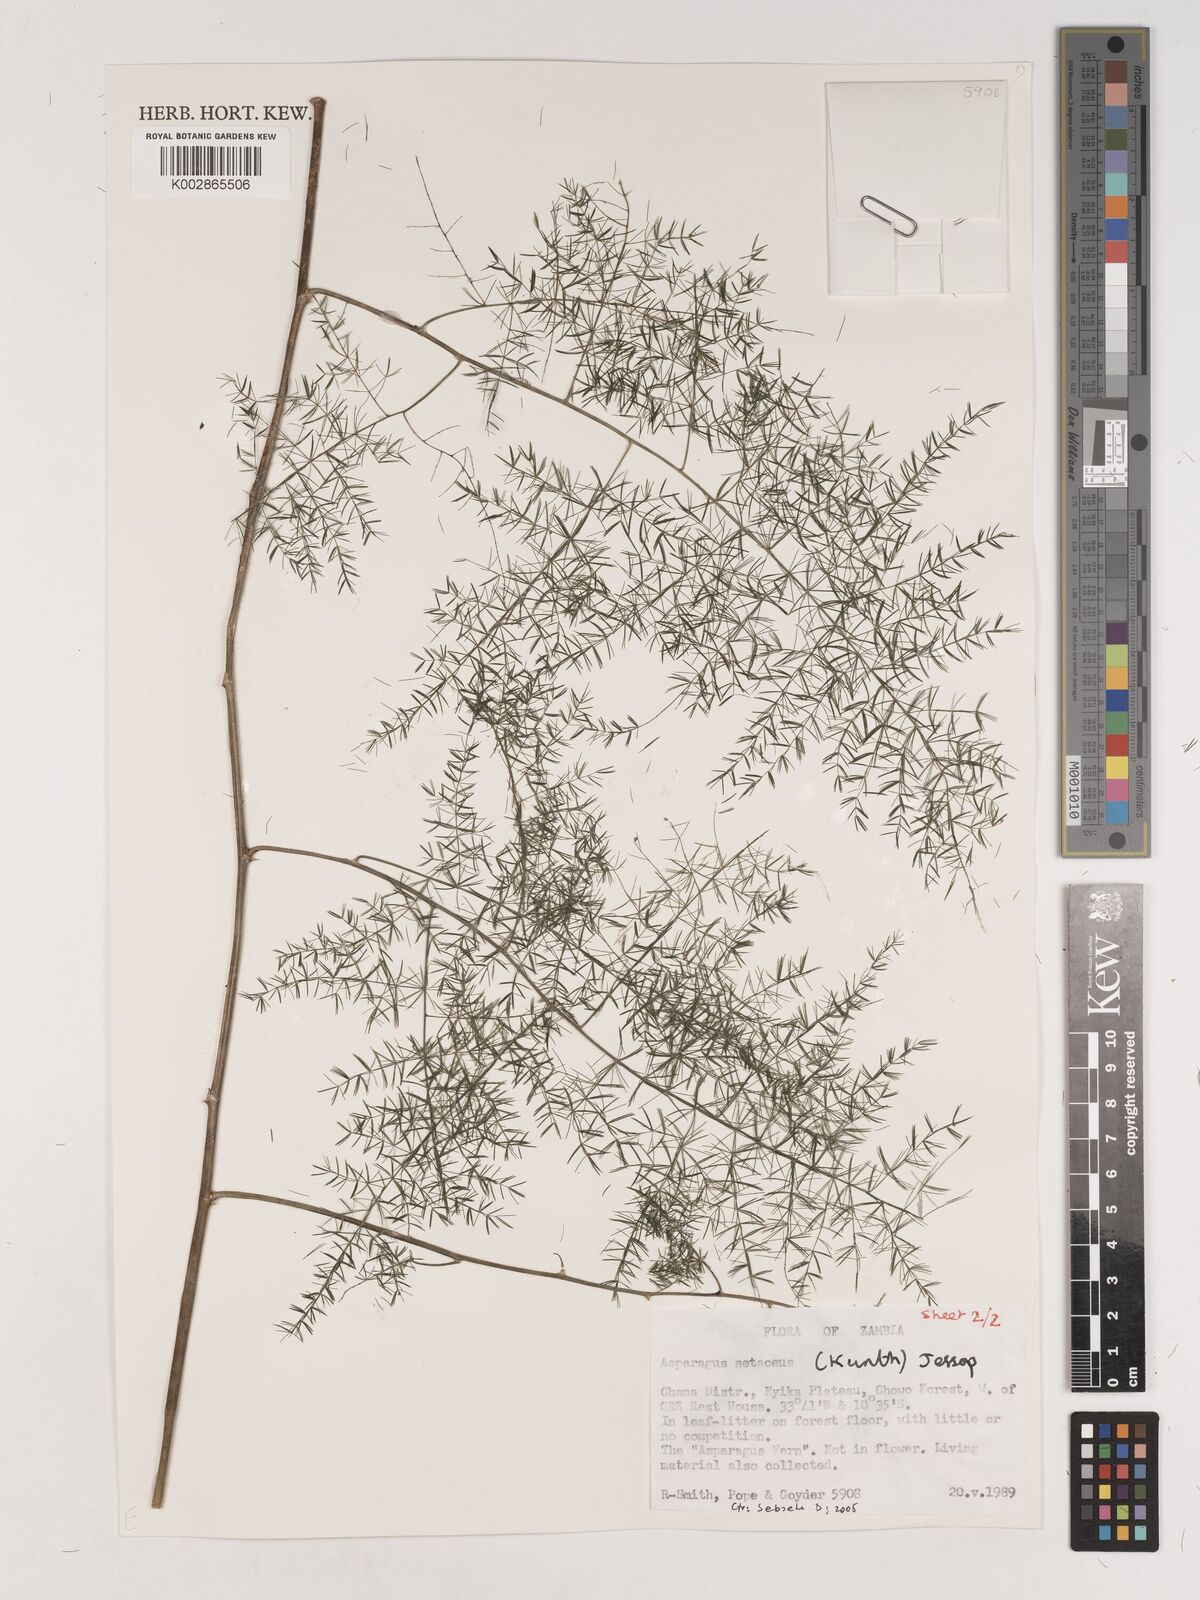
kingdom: Plantae
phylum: Tracheophyta
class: Liliopsida
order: Asparagales
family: Asparagaceae
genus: Asparagus
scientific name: Asparagus setaceus
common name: Common asparagus fern
